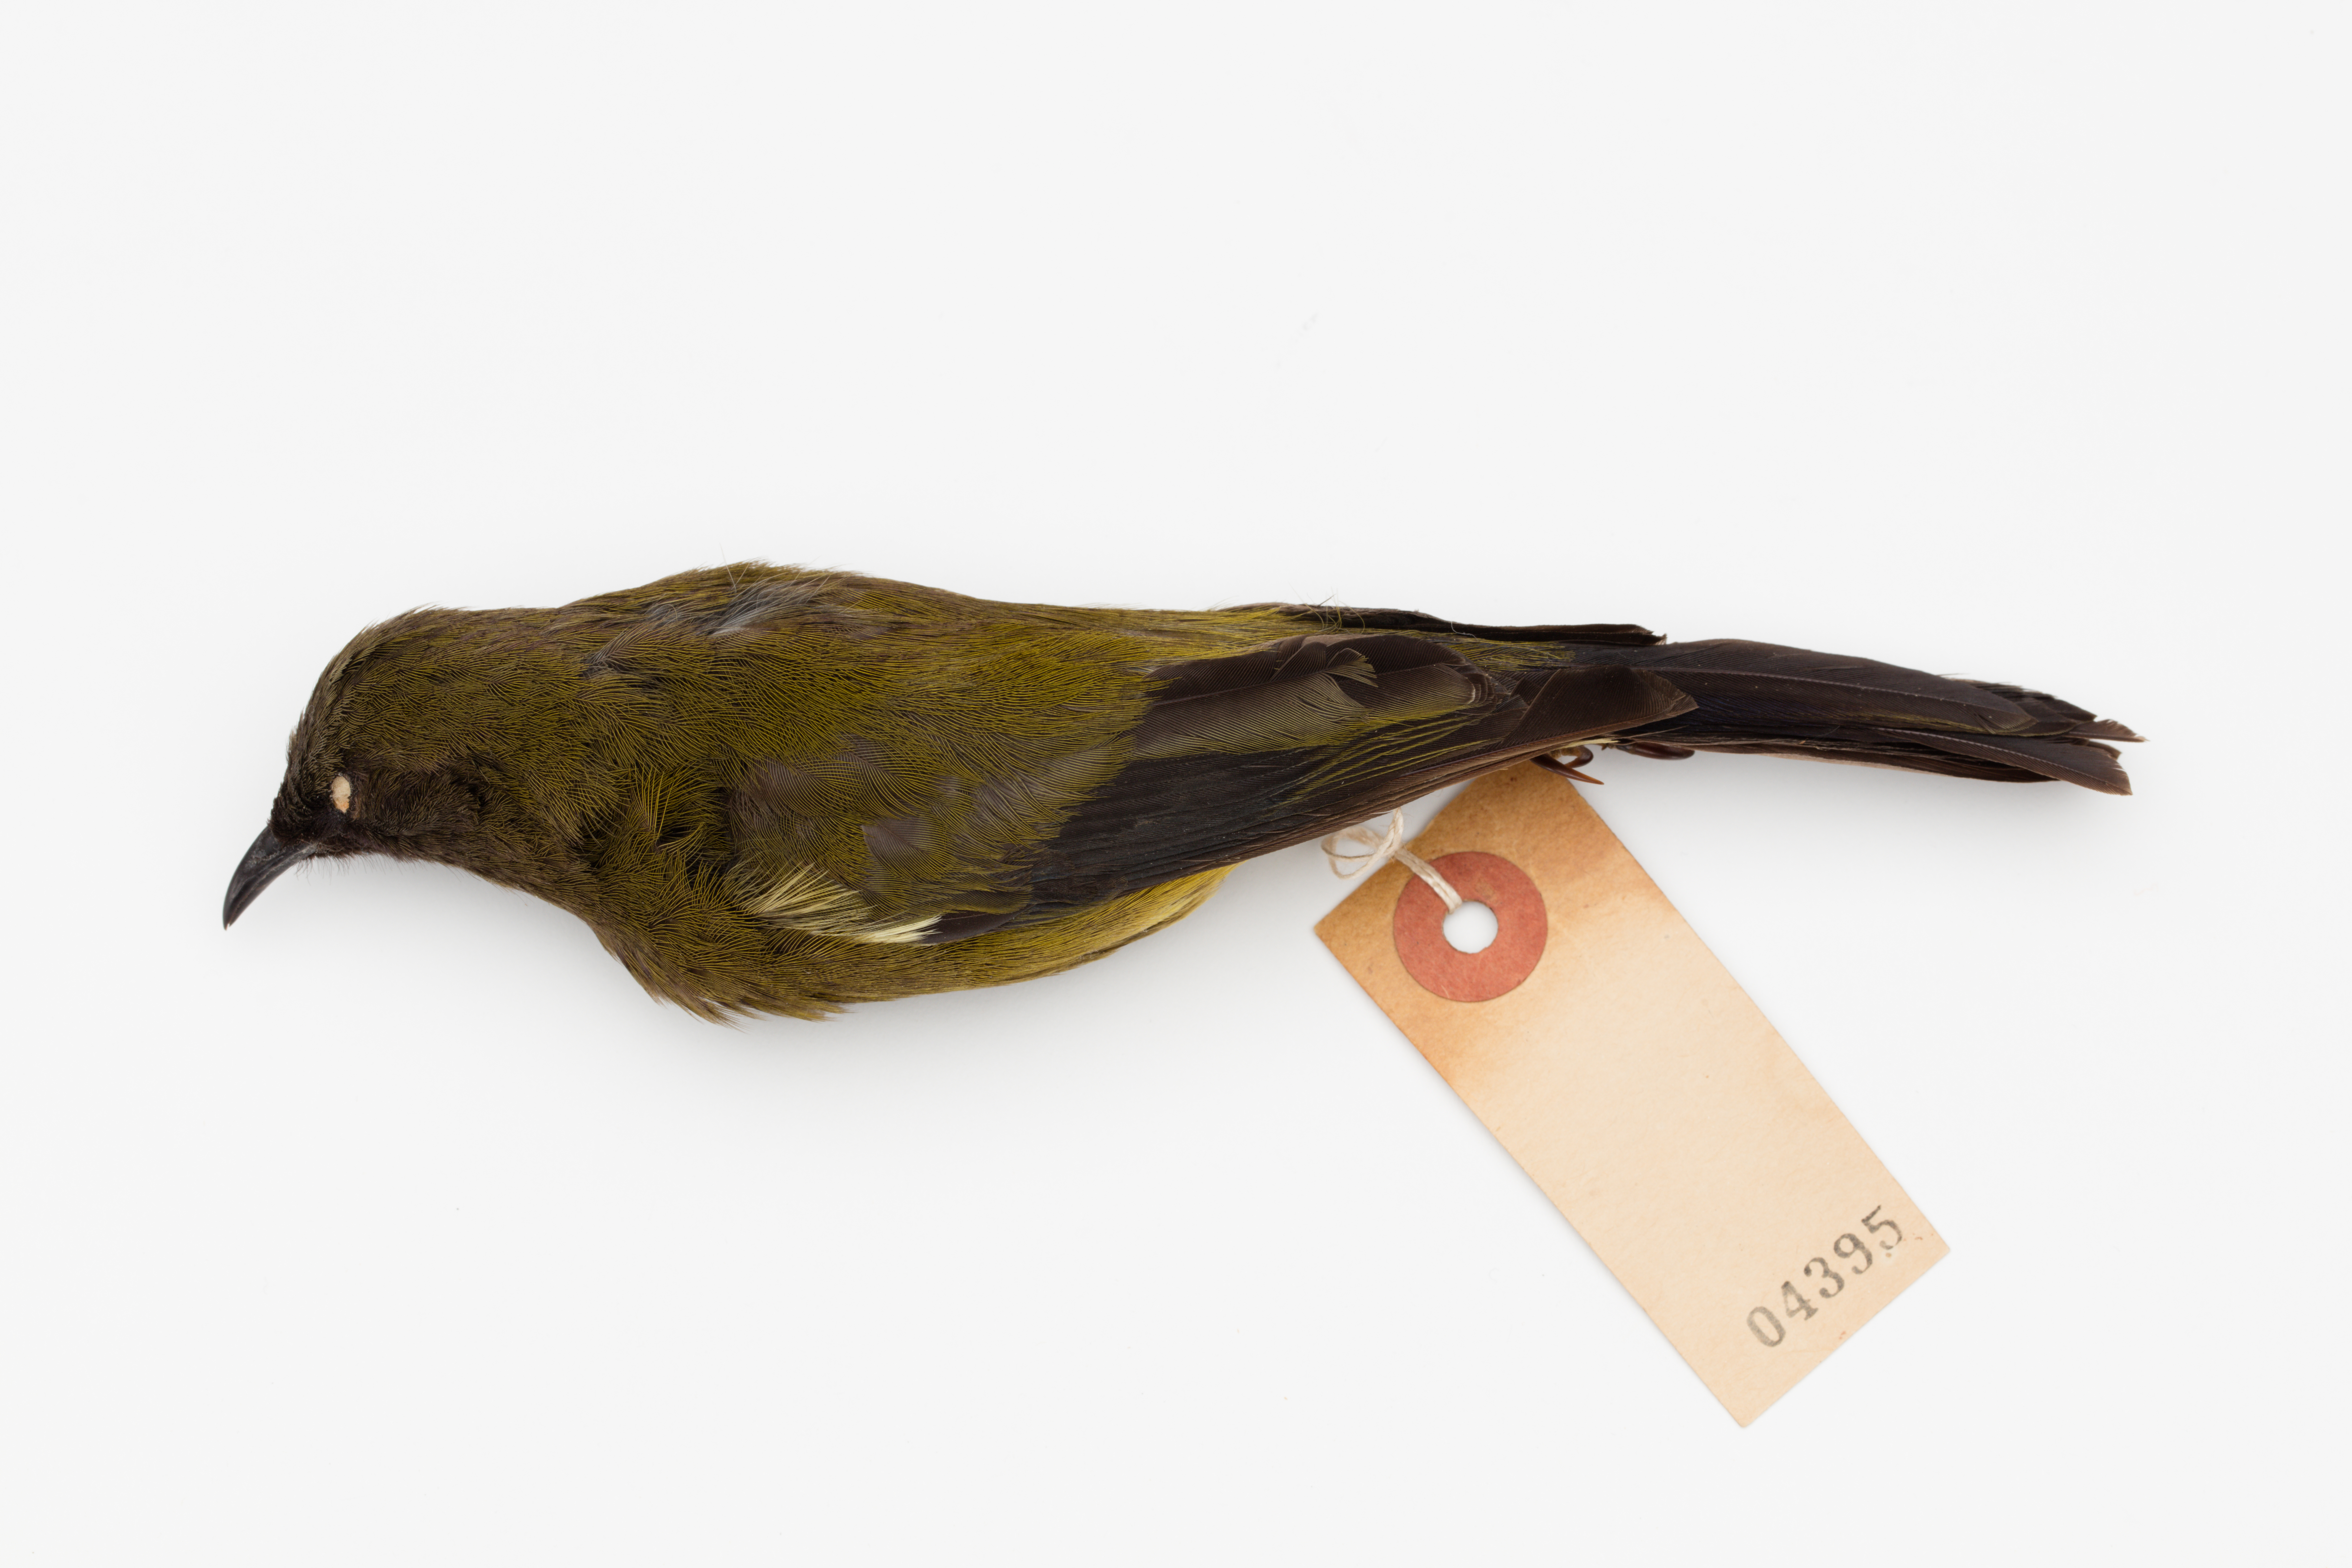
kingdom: Animalia
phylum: Chordata
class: Aves
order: Passeriformes
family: Meliphagidae
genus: Anthornis
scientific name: Anthornis melanura
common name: New zealand bellbird
